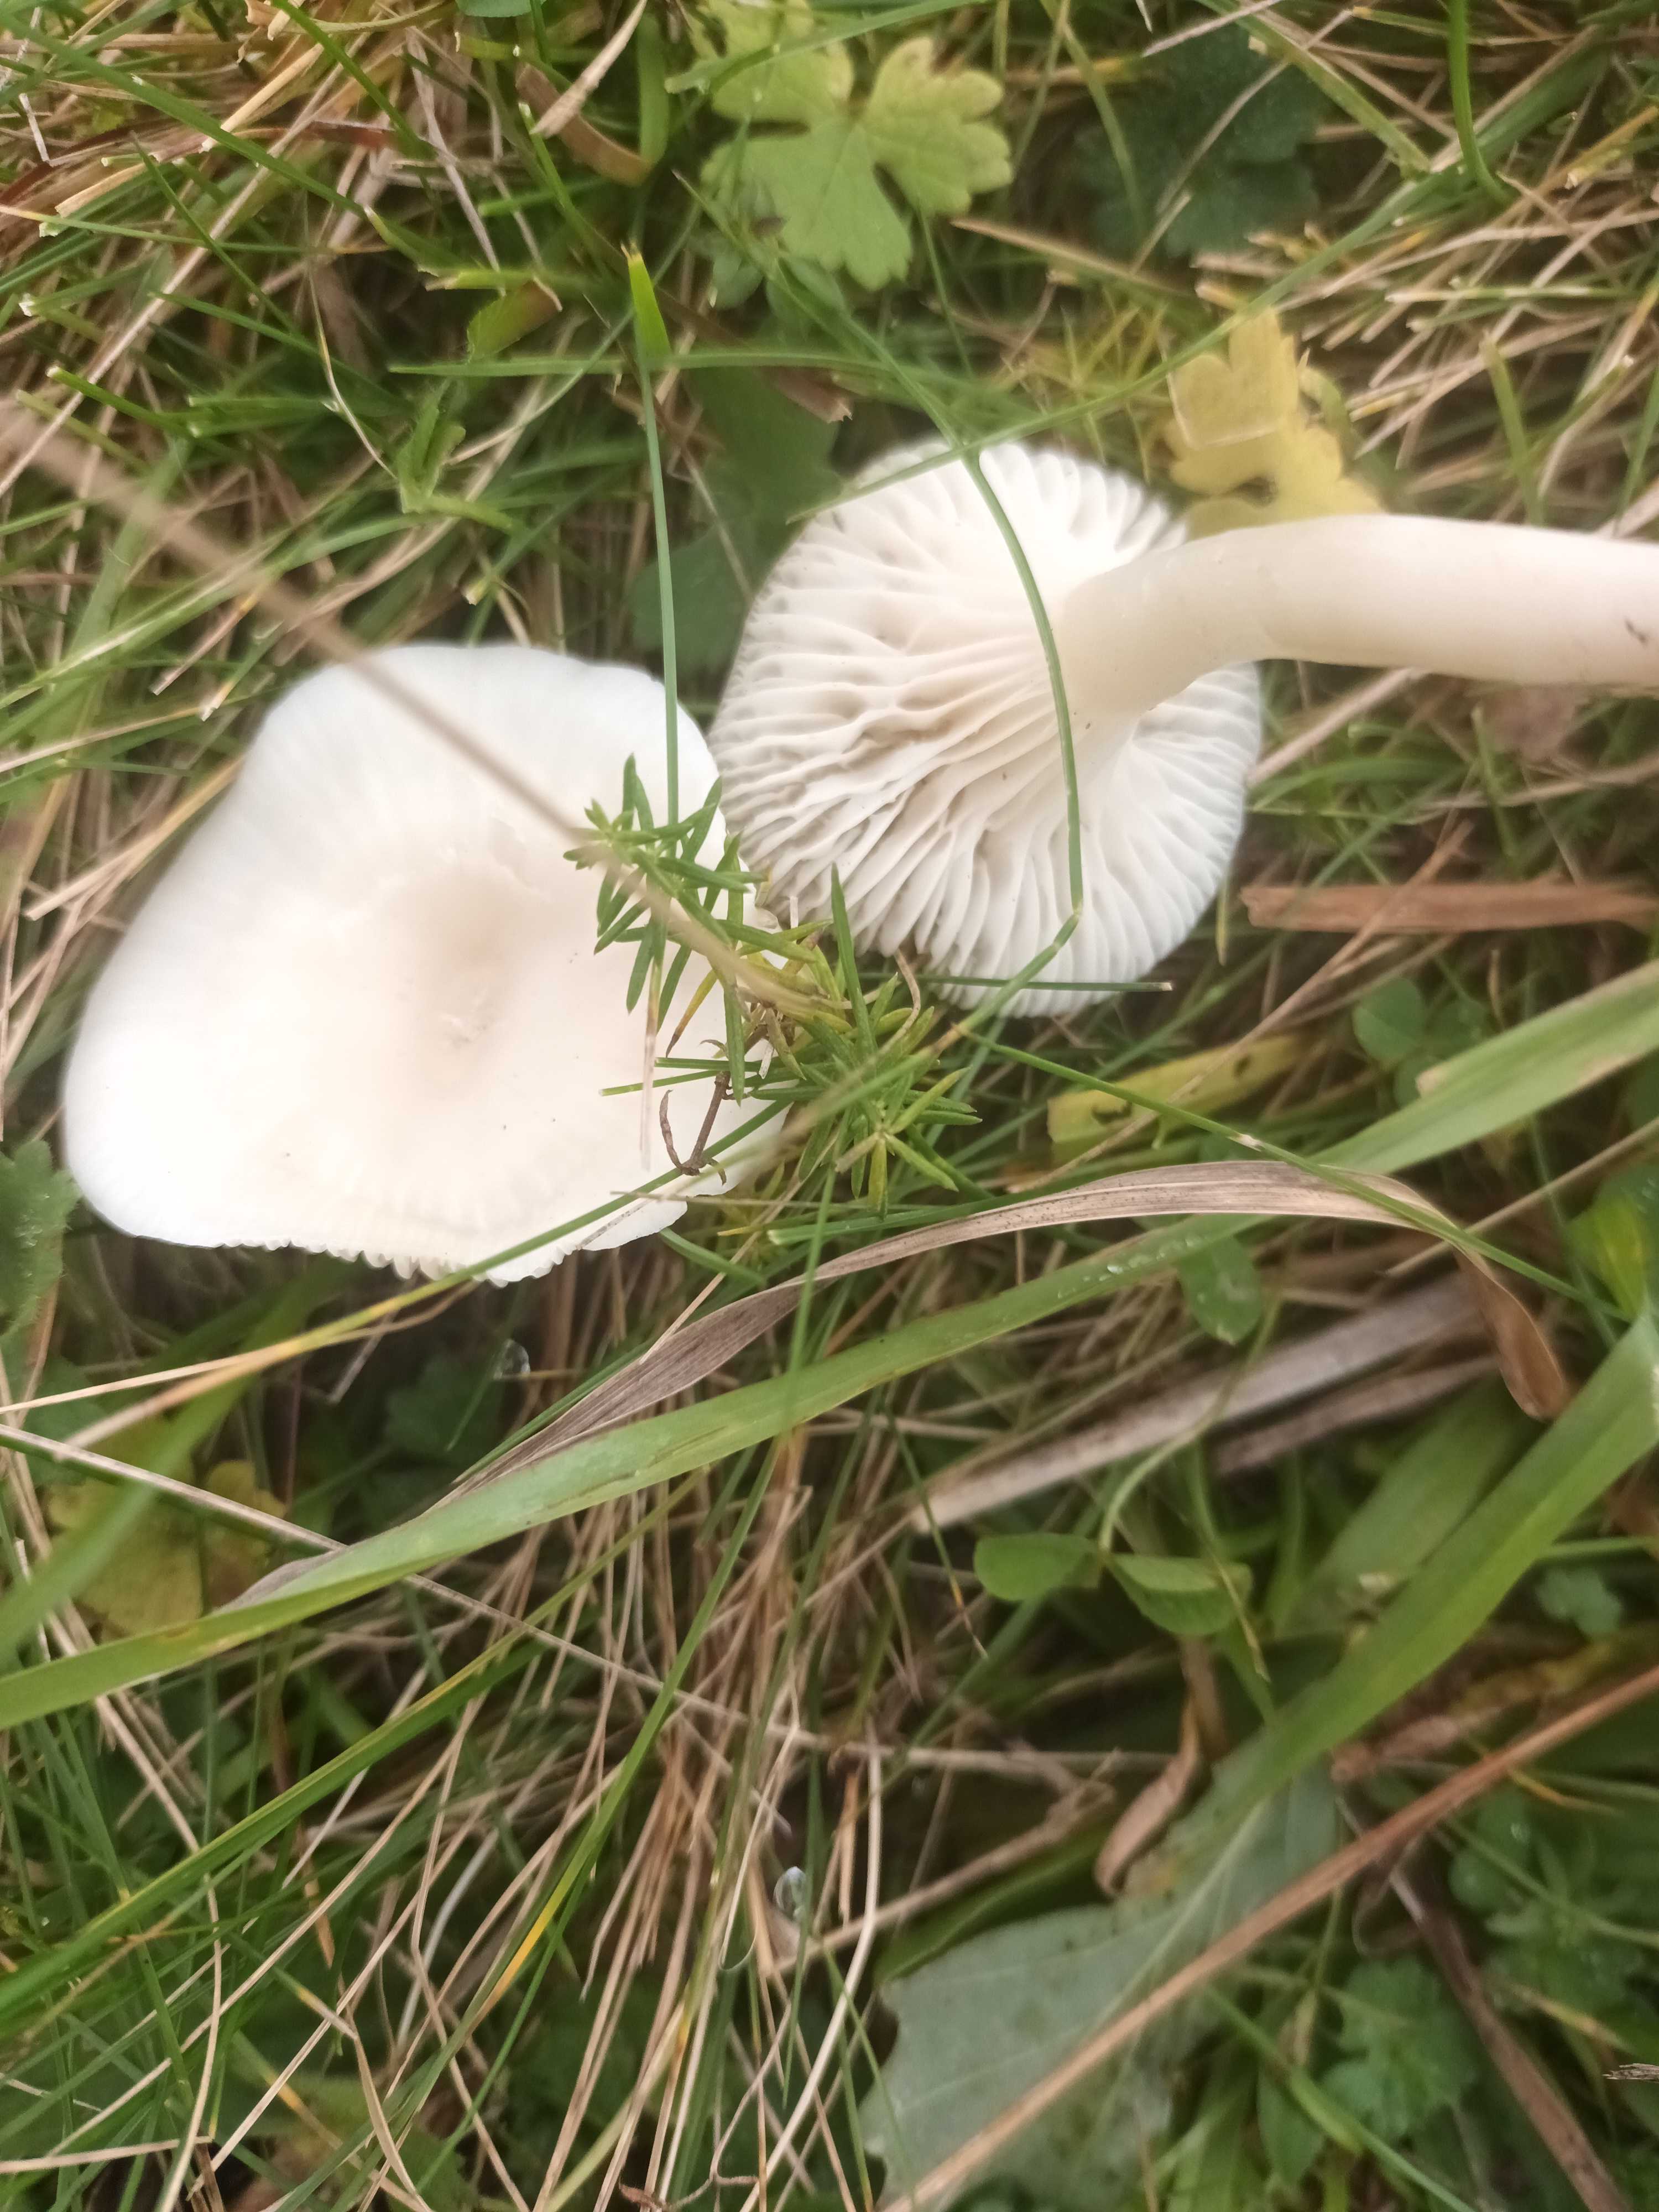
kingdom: Fungi
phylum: Basidiomycota
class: Agaricomycetes
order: Agaricales
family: Hygrophoraceae
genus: Cuphophyllus
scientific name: Cuphophyllus virgineus
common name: snehvid vokshat
